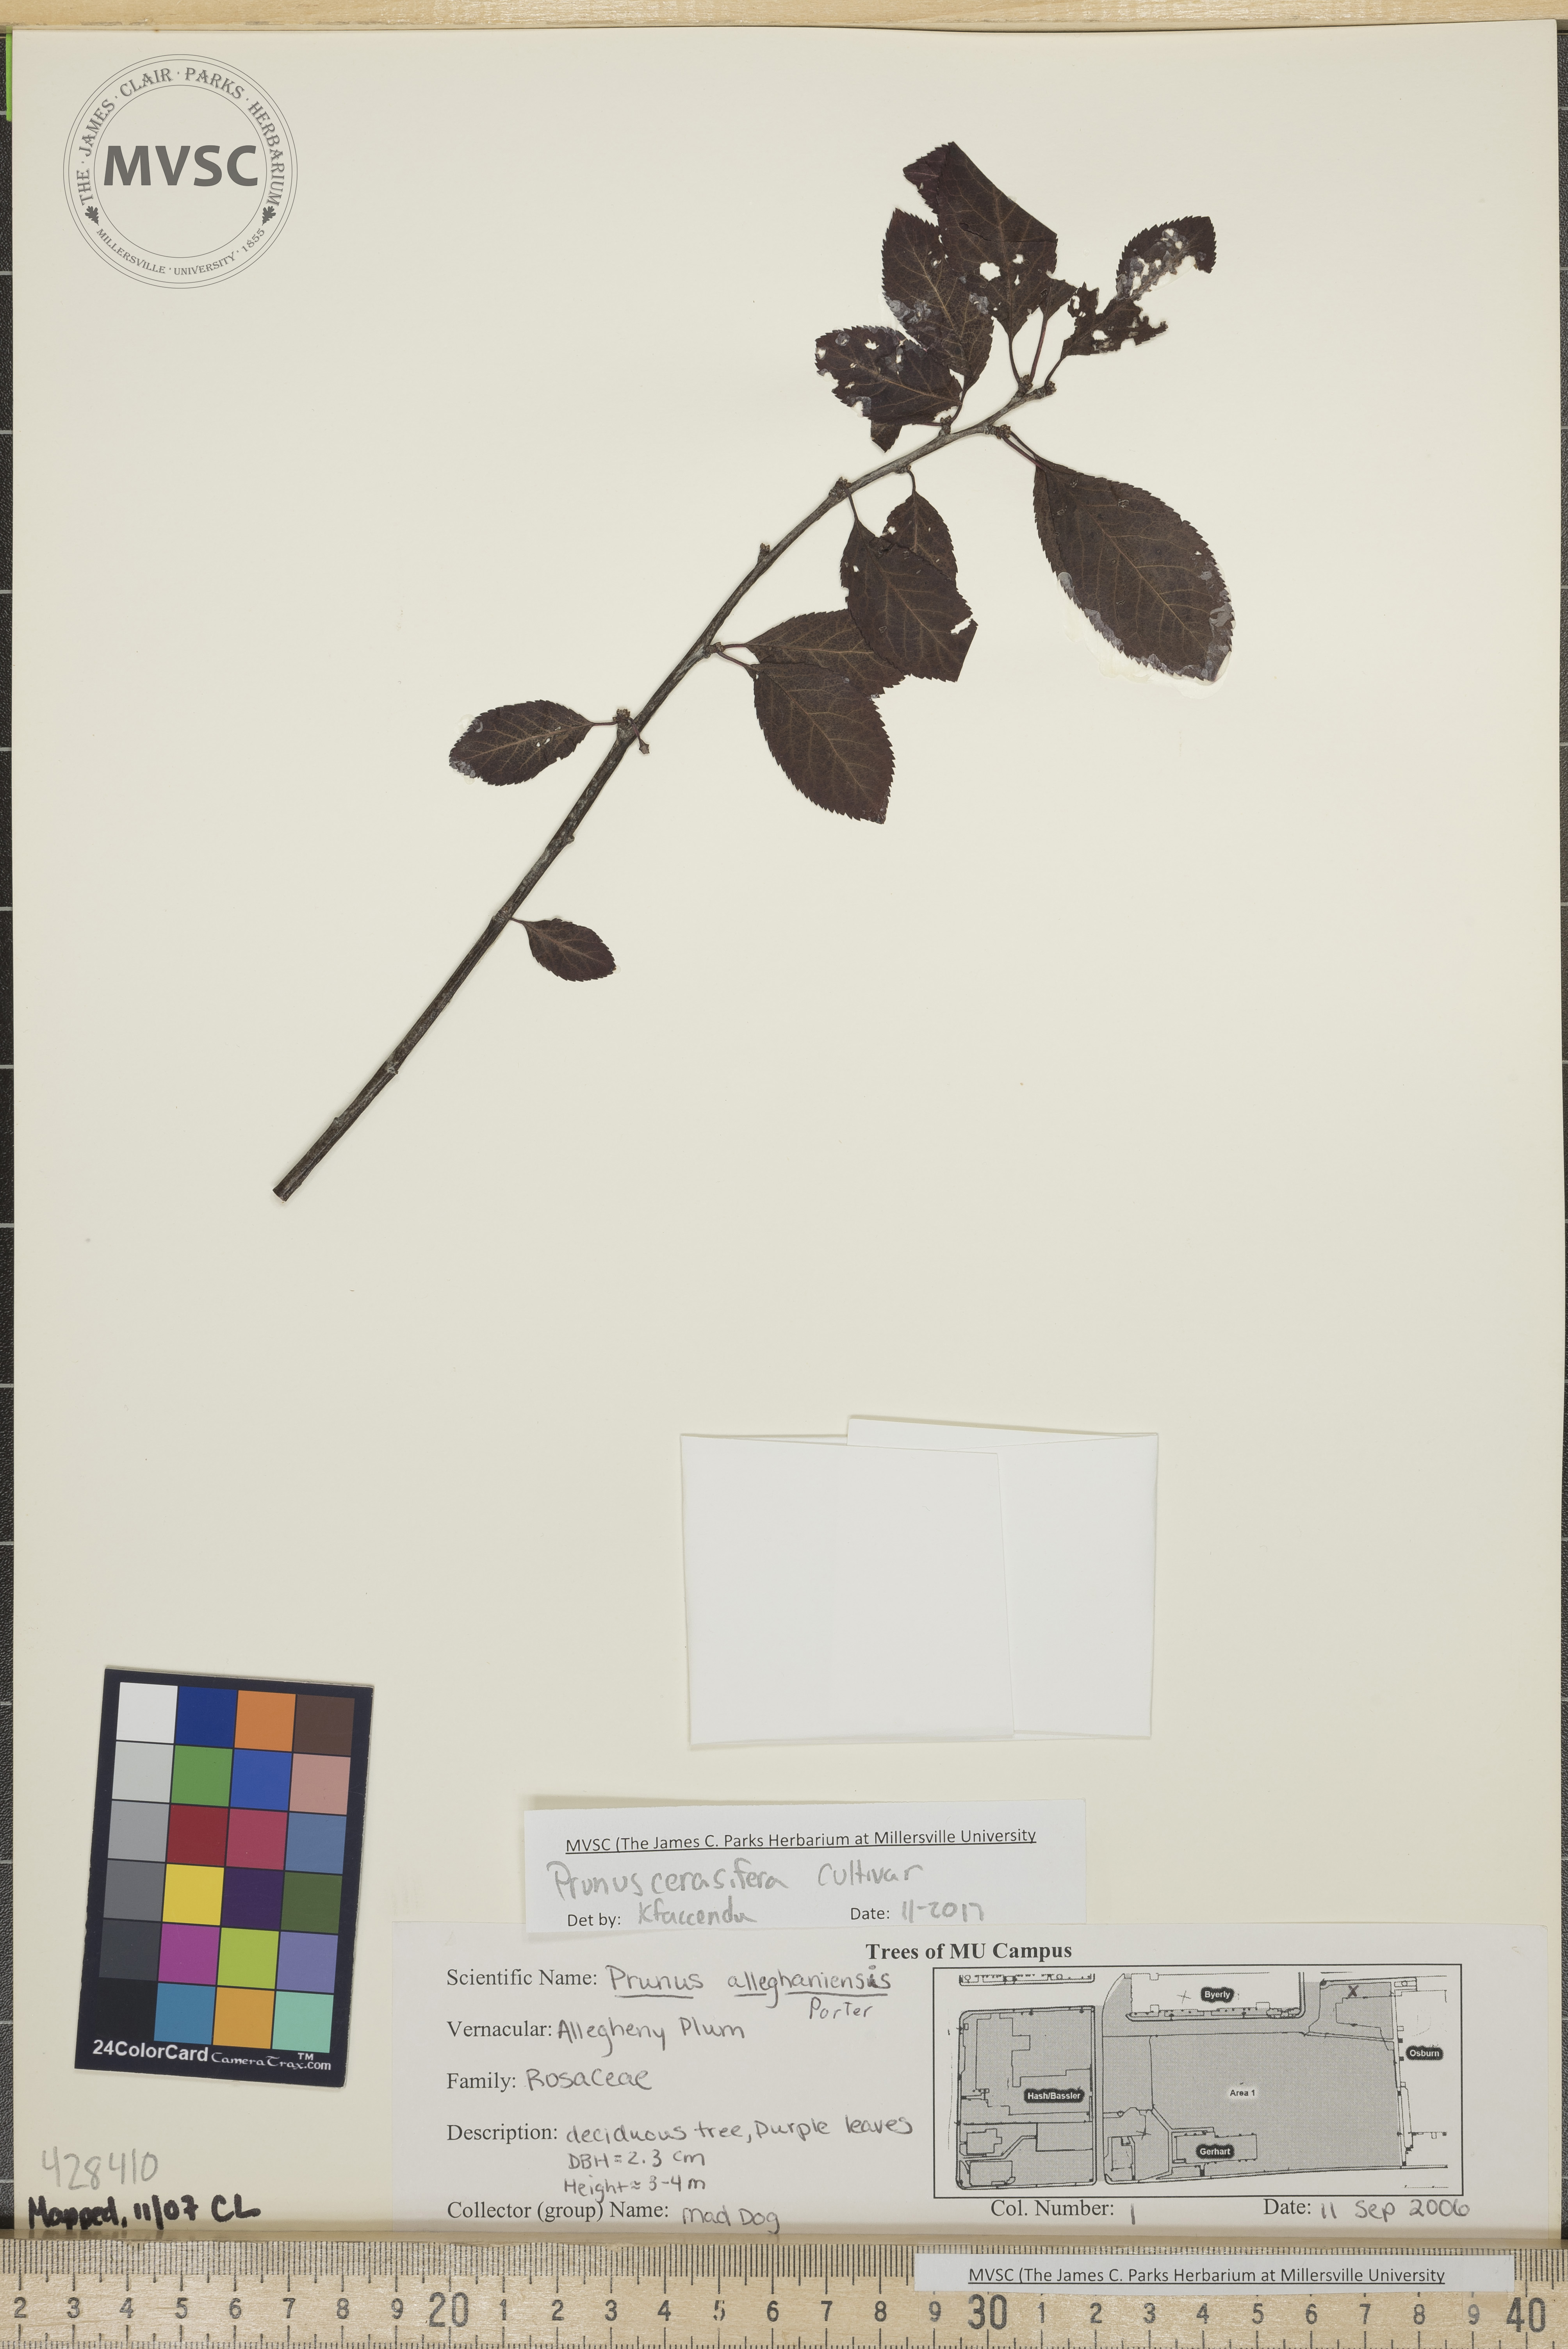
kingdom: Plantae
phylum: Tracheophyta
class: Magnoliopsida
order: Rosales
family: Rosaceae
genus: Prunus
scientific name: Prunus cerasifera
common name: Cherry plum
